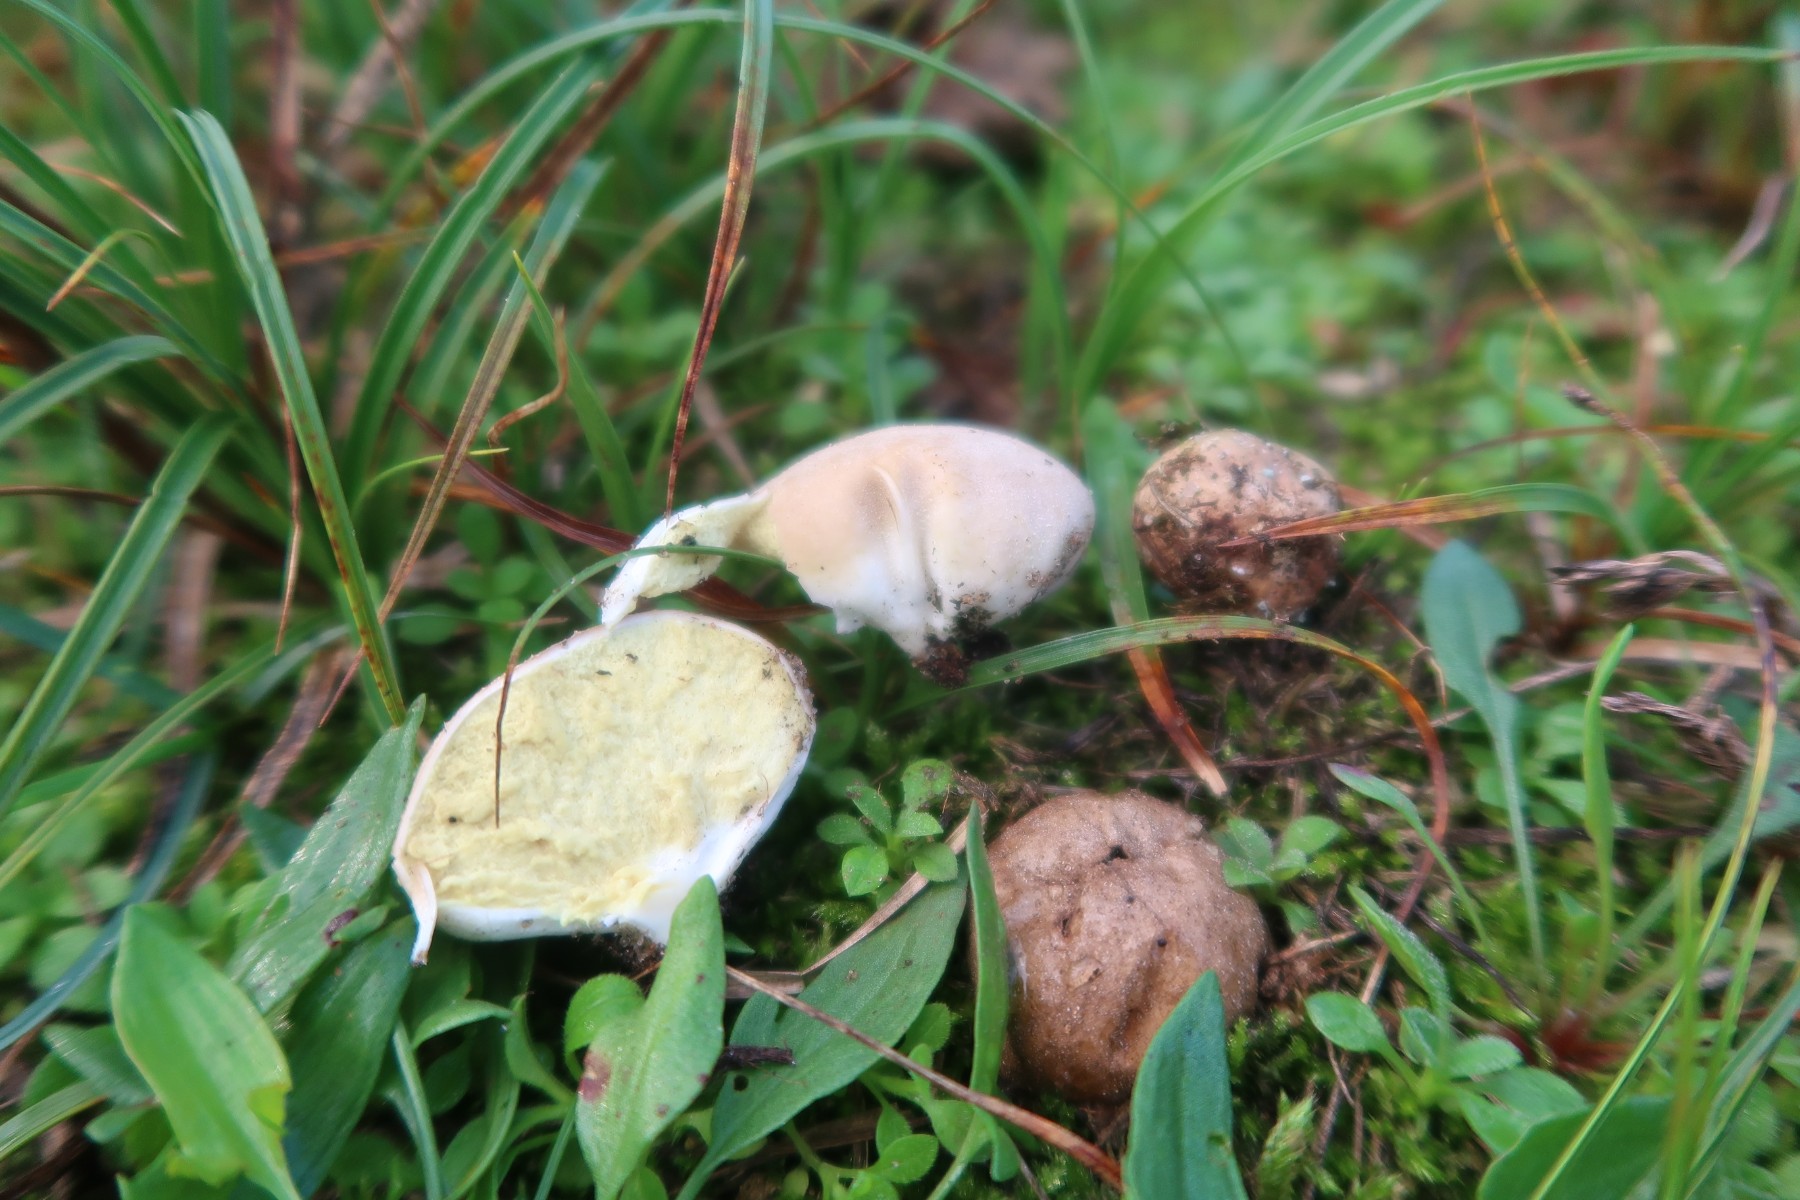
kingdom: Fungi
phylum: Basidiomycota
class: Agaricomycetes
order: Agaricales
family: Lycoperdaceae
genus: Lycoperdon
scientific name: Lycoperdon dermoxanthum
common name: Dwarf puffball
